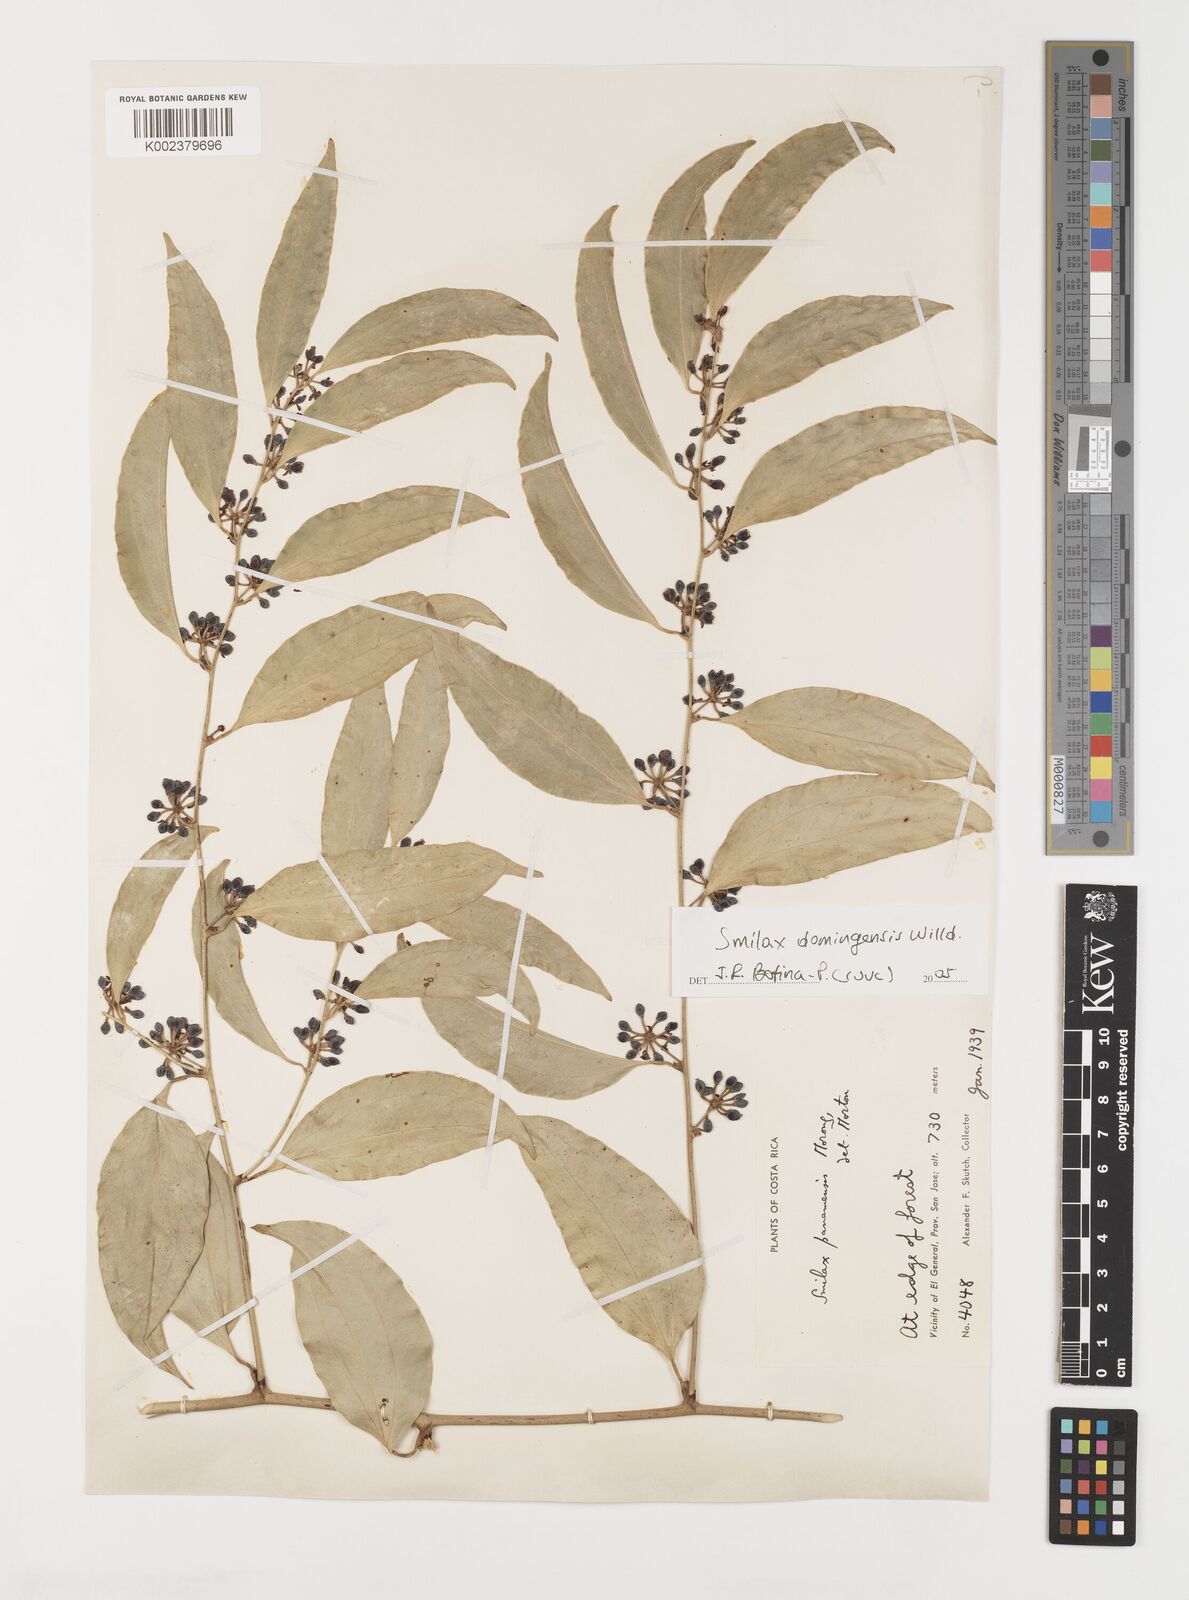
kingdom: Plantae
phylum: Tracheophyta
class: Liliopsida
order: Liliales
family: Smilacaceae
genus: Smilax
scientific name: Smilax domingensis
